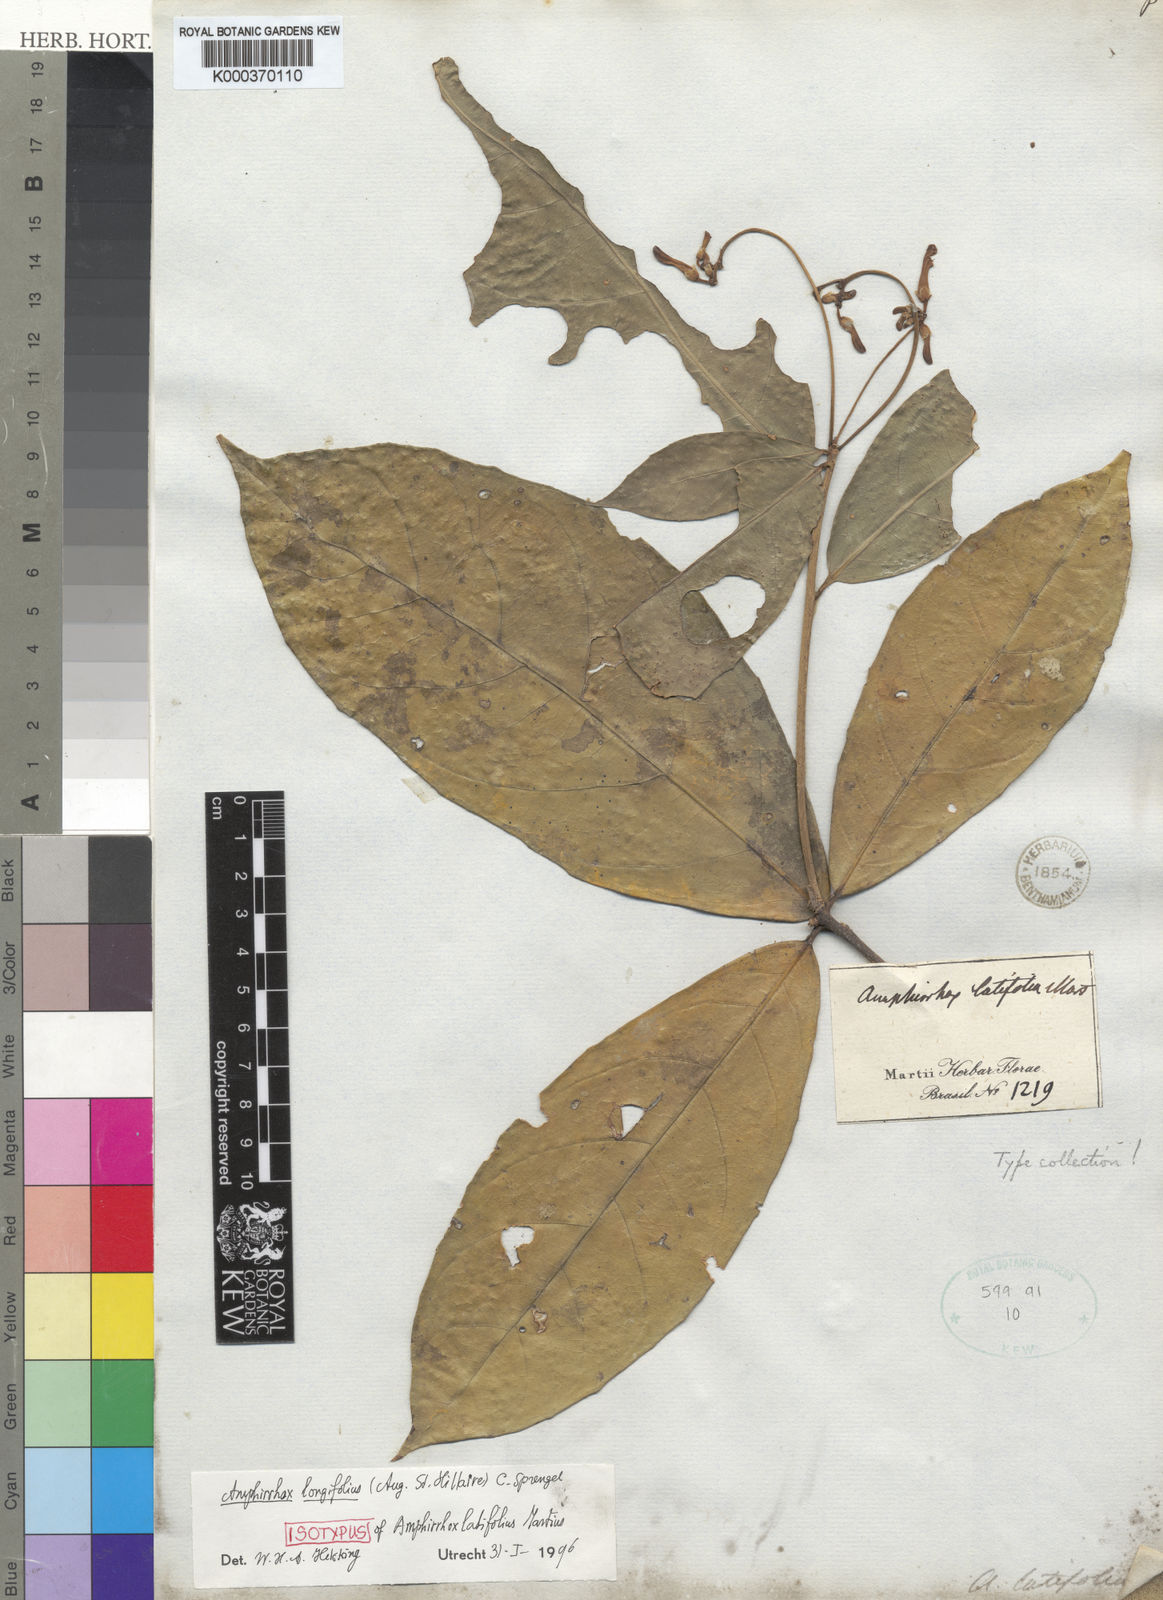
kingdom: Plantae
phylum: Tracheophyta
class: Magnoliopsida
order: Malpighiales
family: Violaceae
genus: Amphirrhox
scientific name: Amphirrhox longifolia
